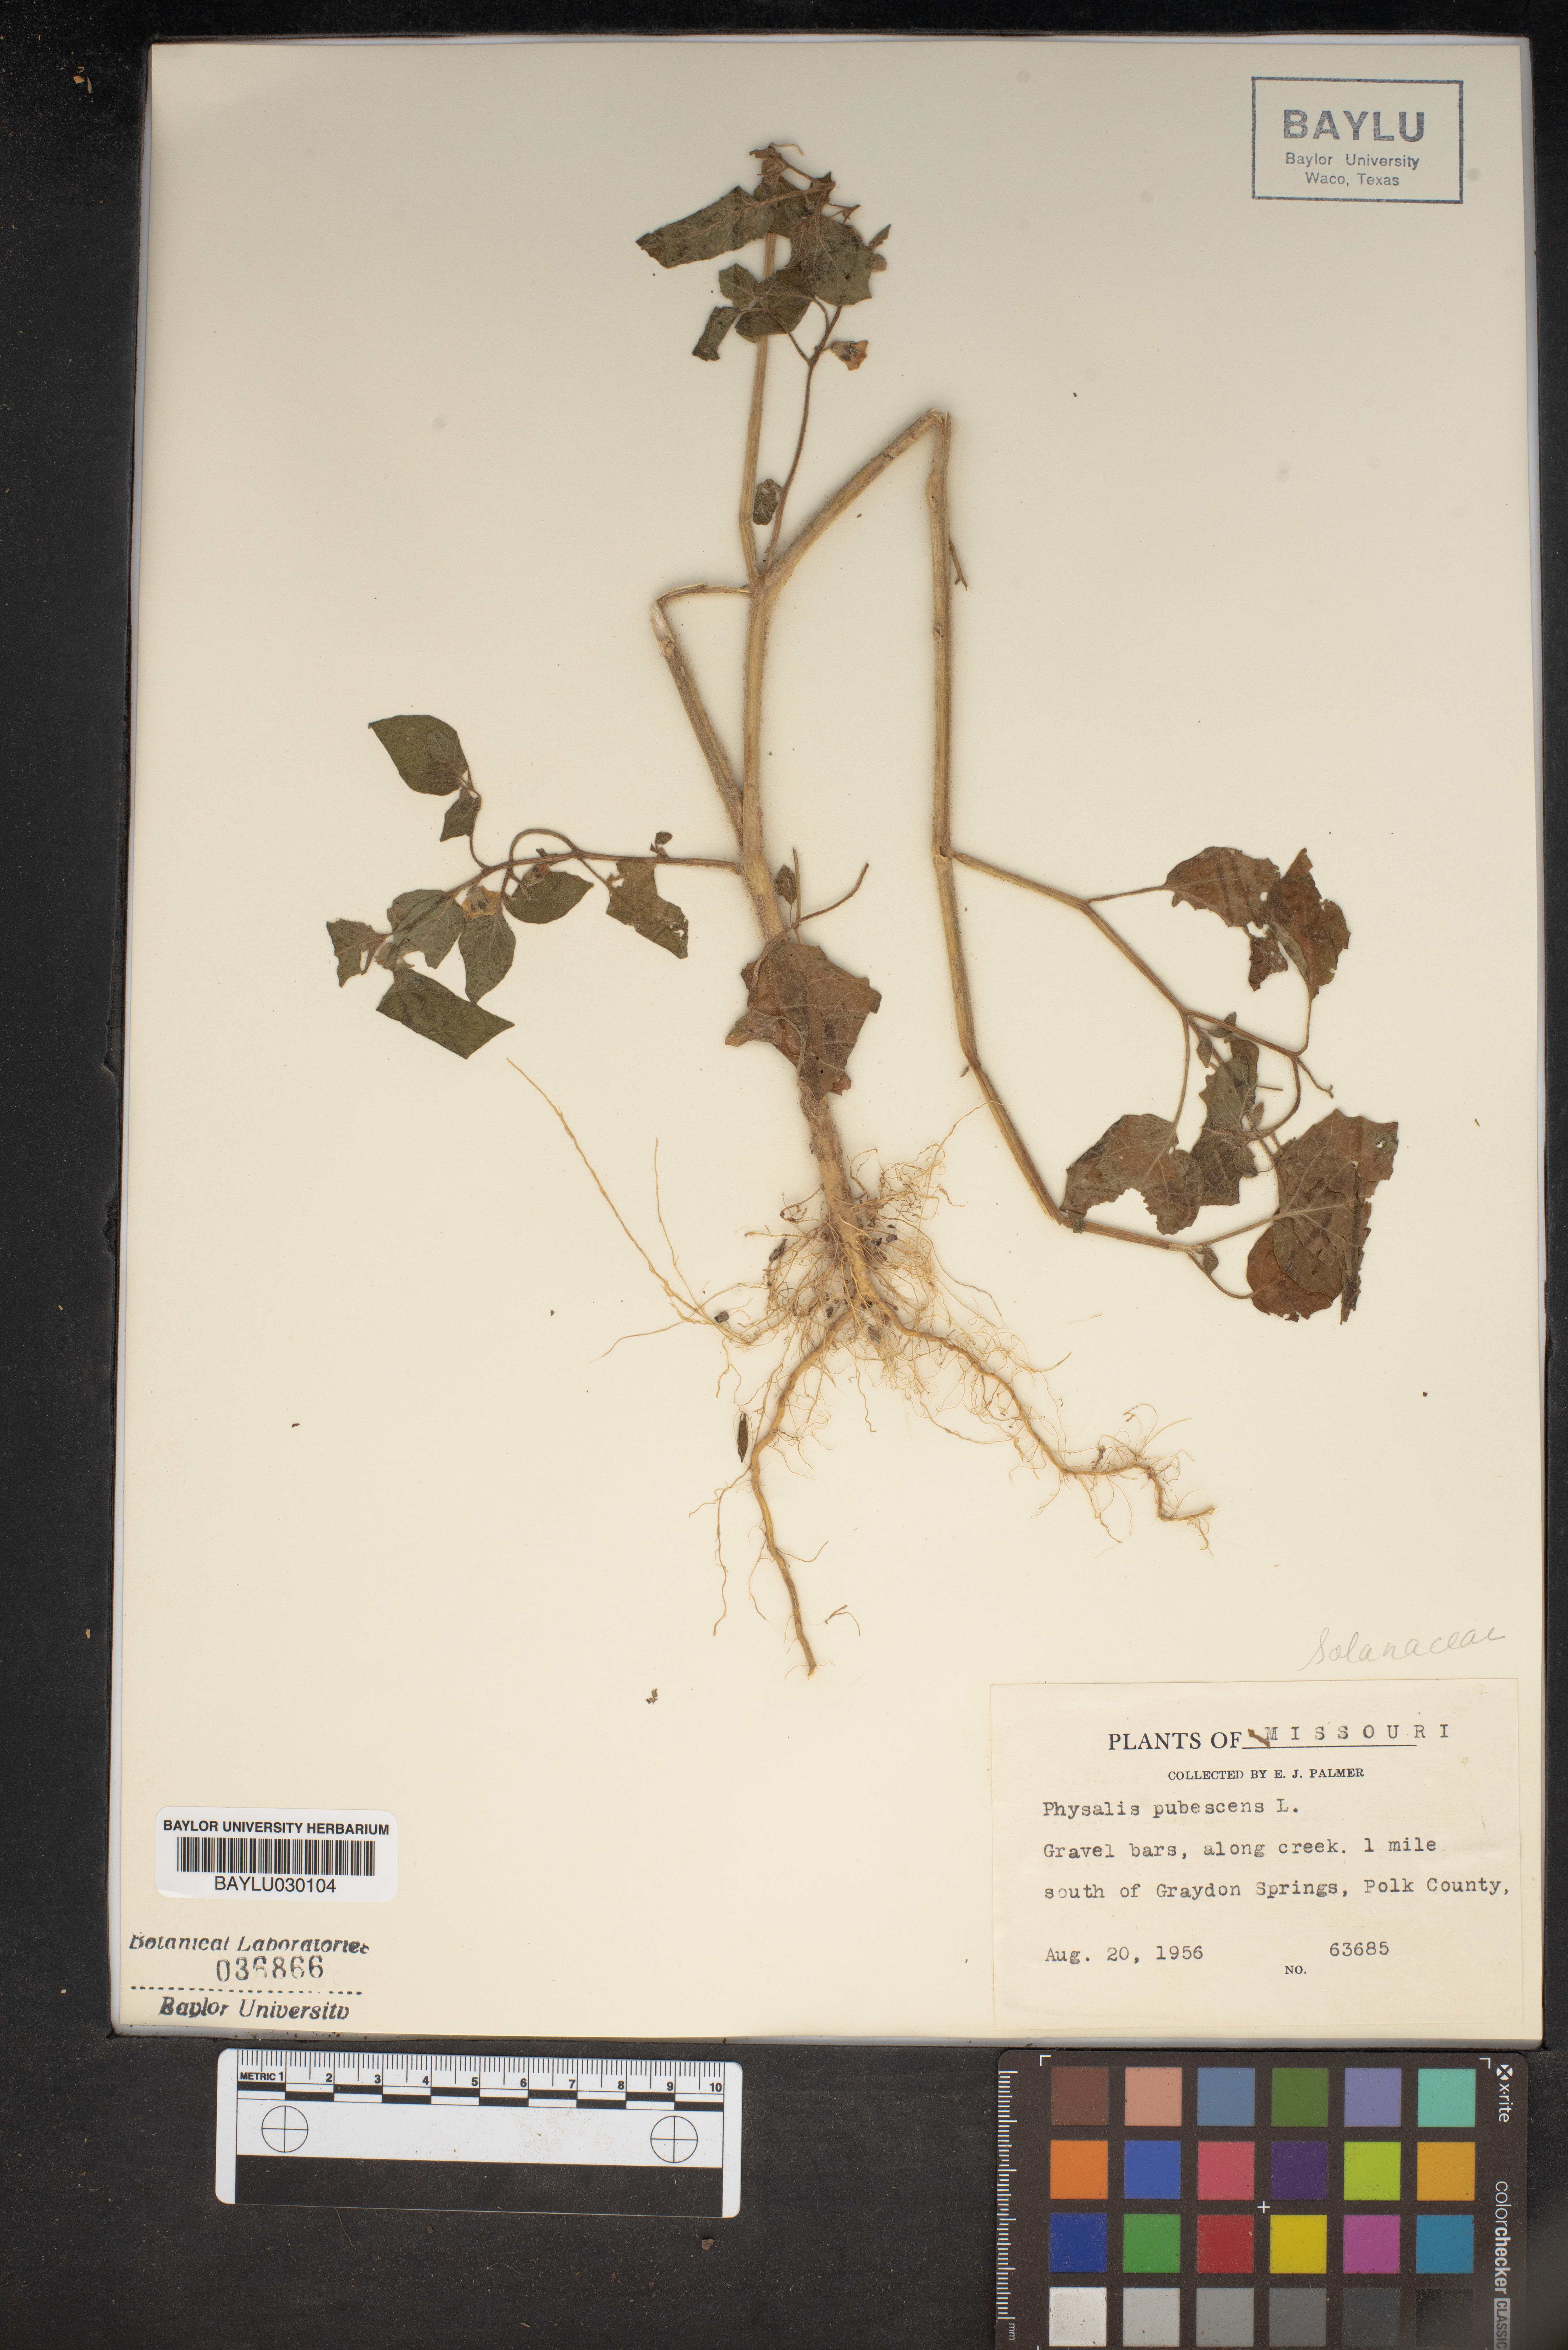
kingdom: Plantae
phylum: Tracheophyta
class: Magnoliopsida
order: Solanales
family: Solanaceae
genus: Physalis
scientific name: Physalis pubescens
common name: Downy ground-cherry
